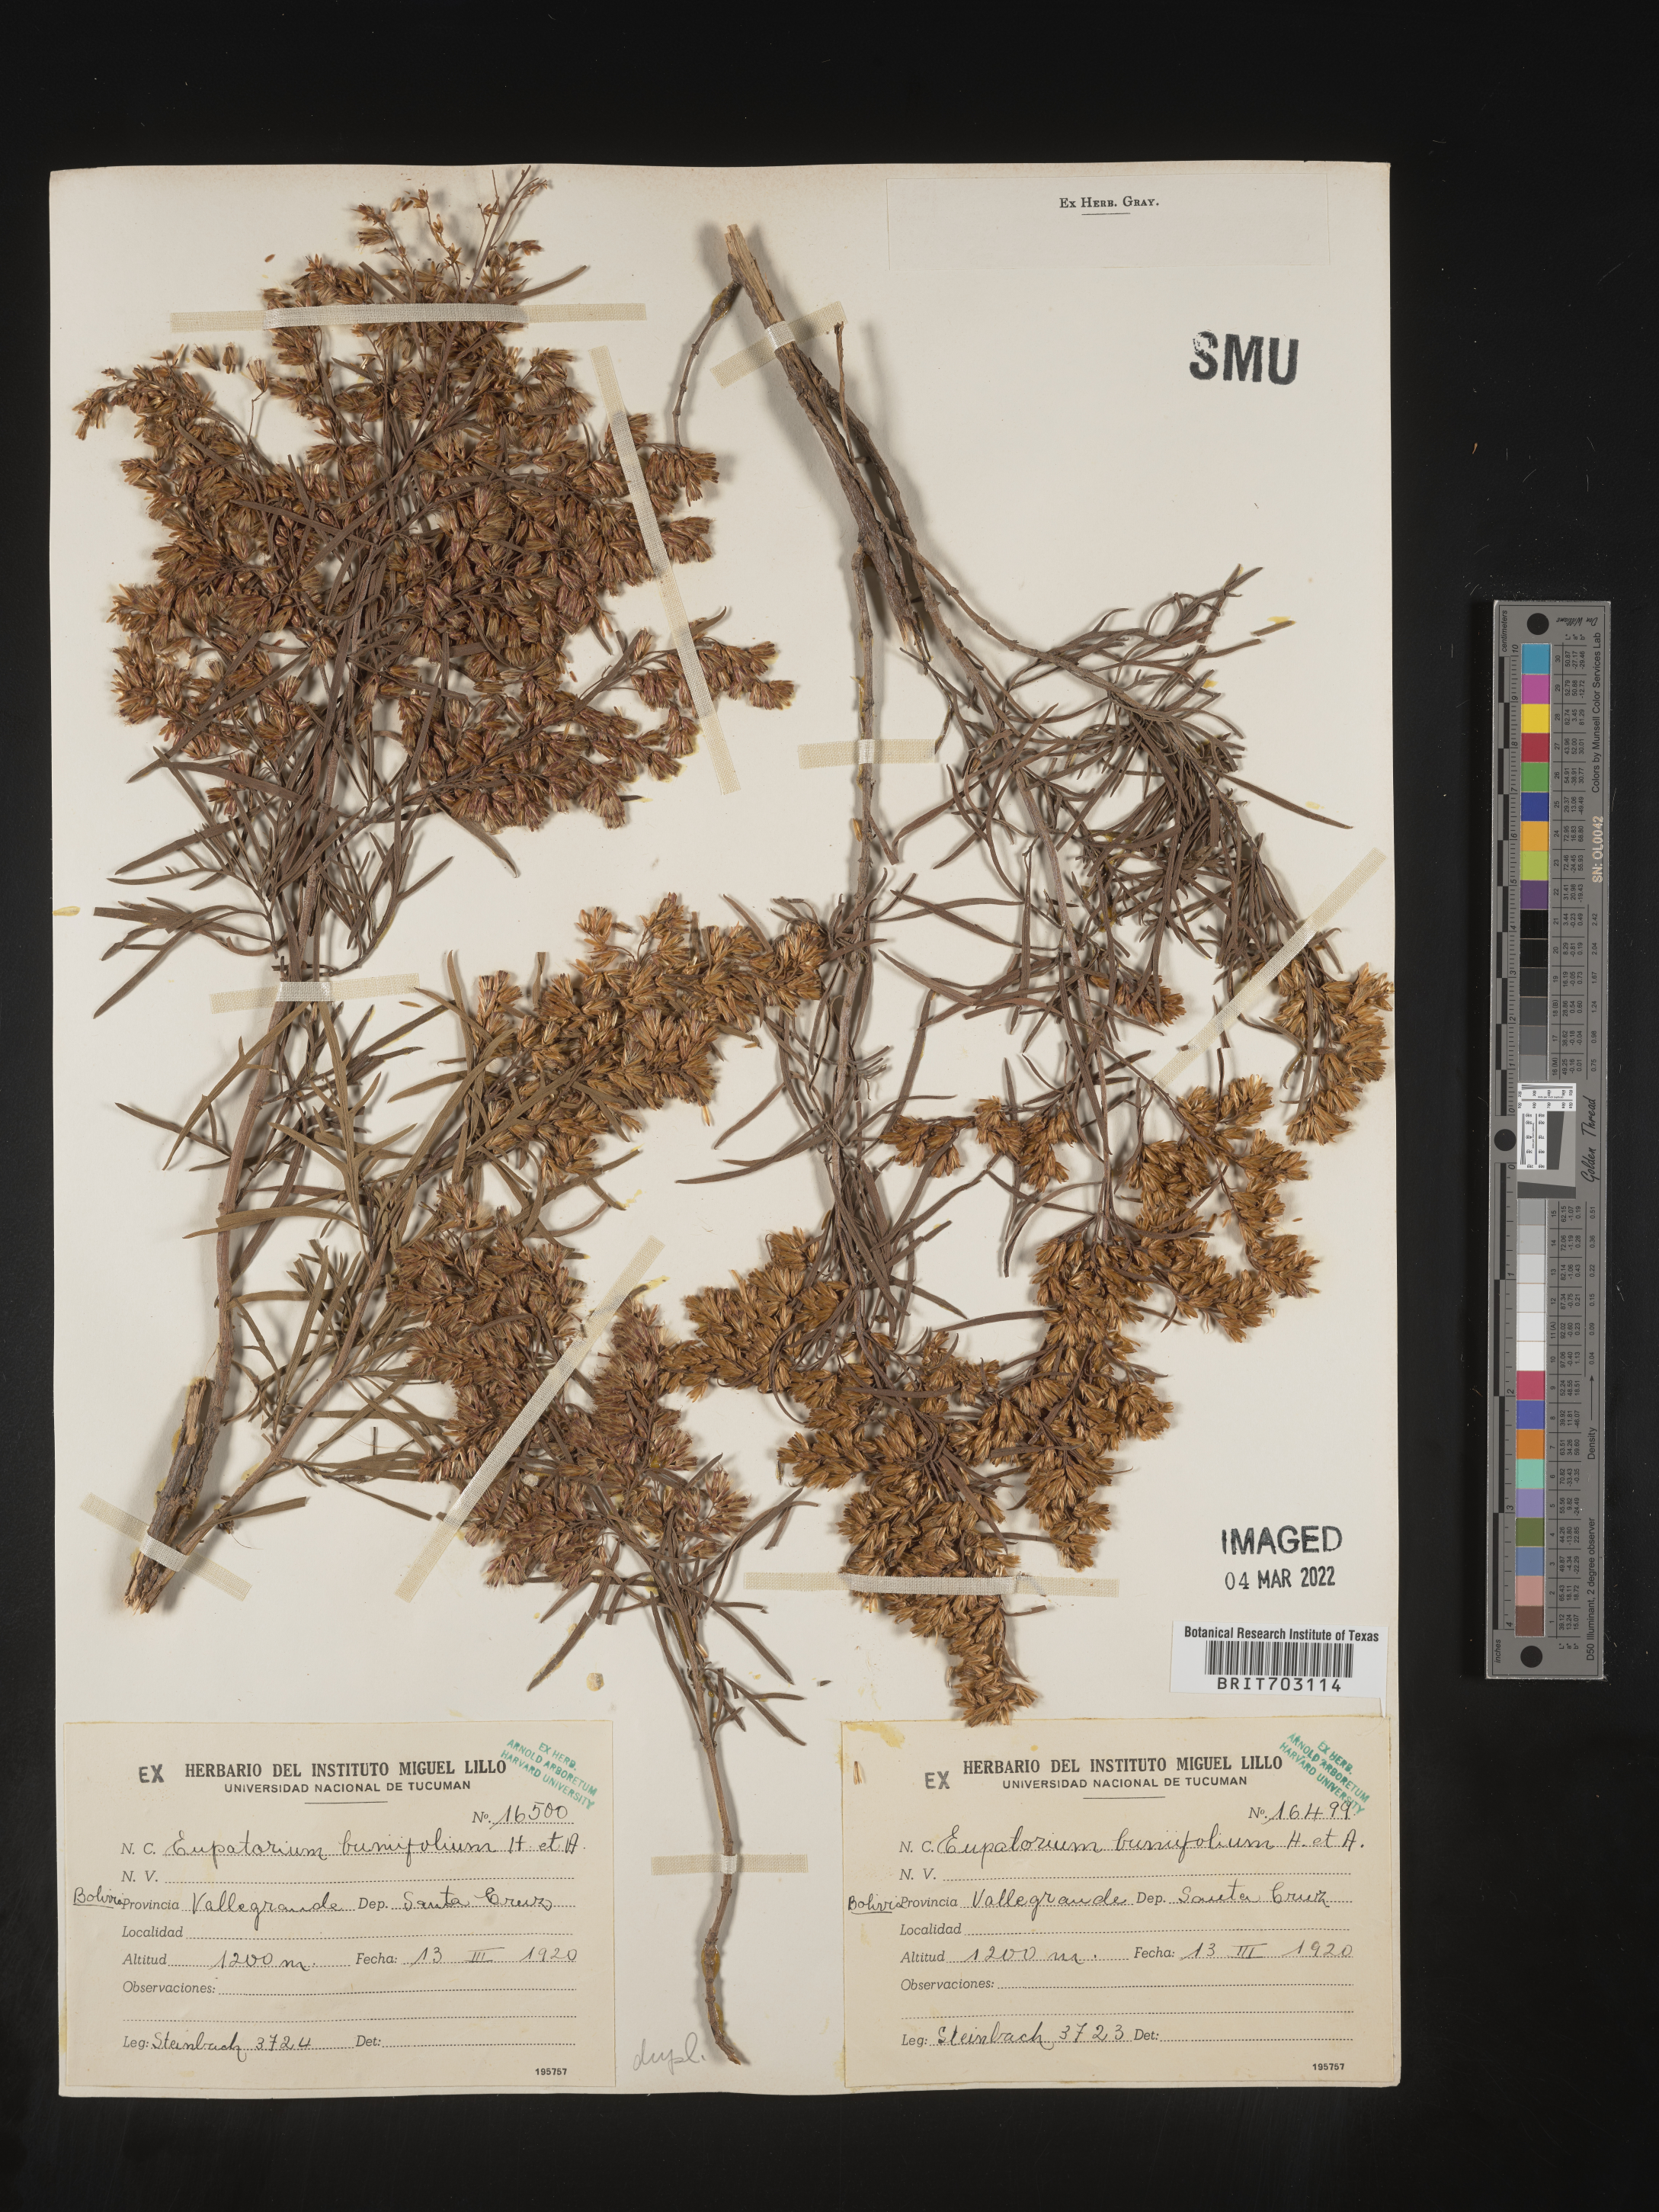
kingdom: Plantae
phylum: Tracheophyta
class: Magnoliopsida
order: Asterales
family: Asteraceae
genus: Eupatorium
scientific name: Eupatorium
